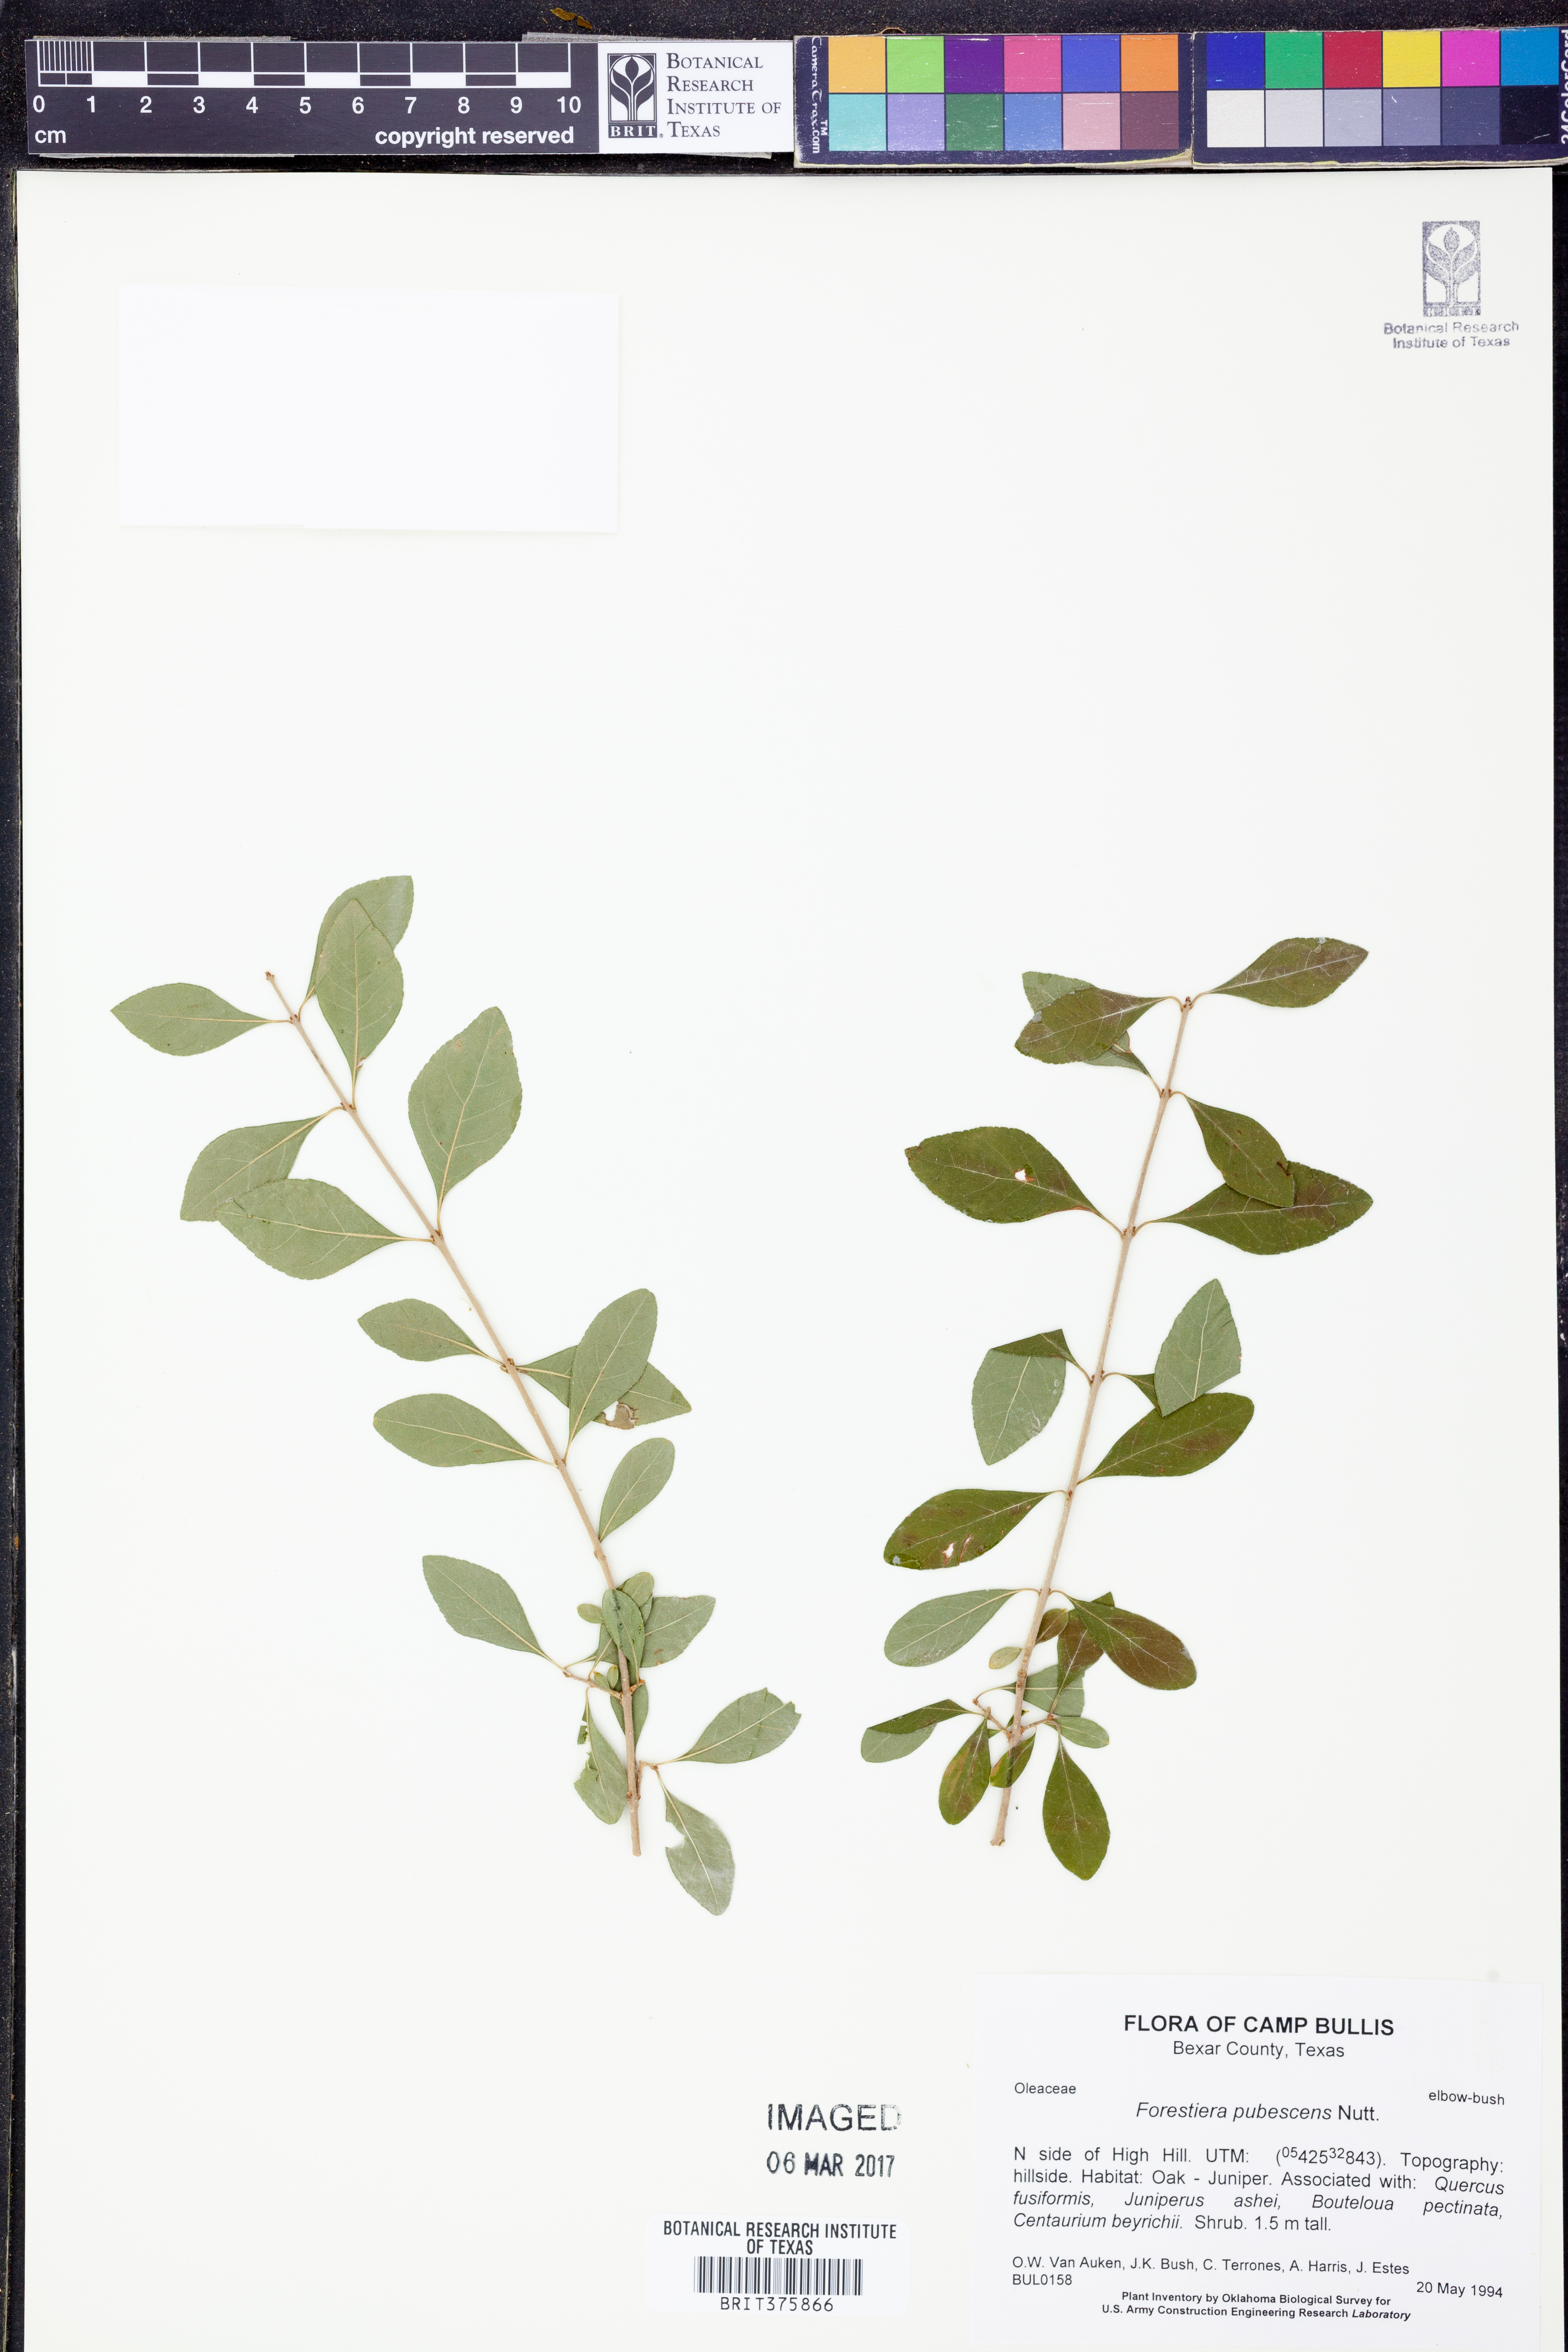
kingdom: Plantae
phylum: Tracheophyta
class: Magnoliopsida
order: Lamiales
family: Oleaceae
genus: Forestiera
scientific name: Forestiera pubescens
